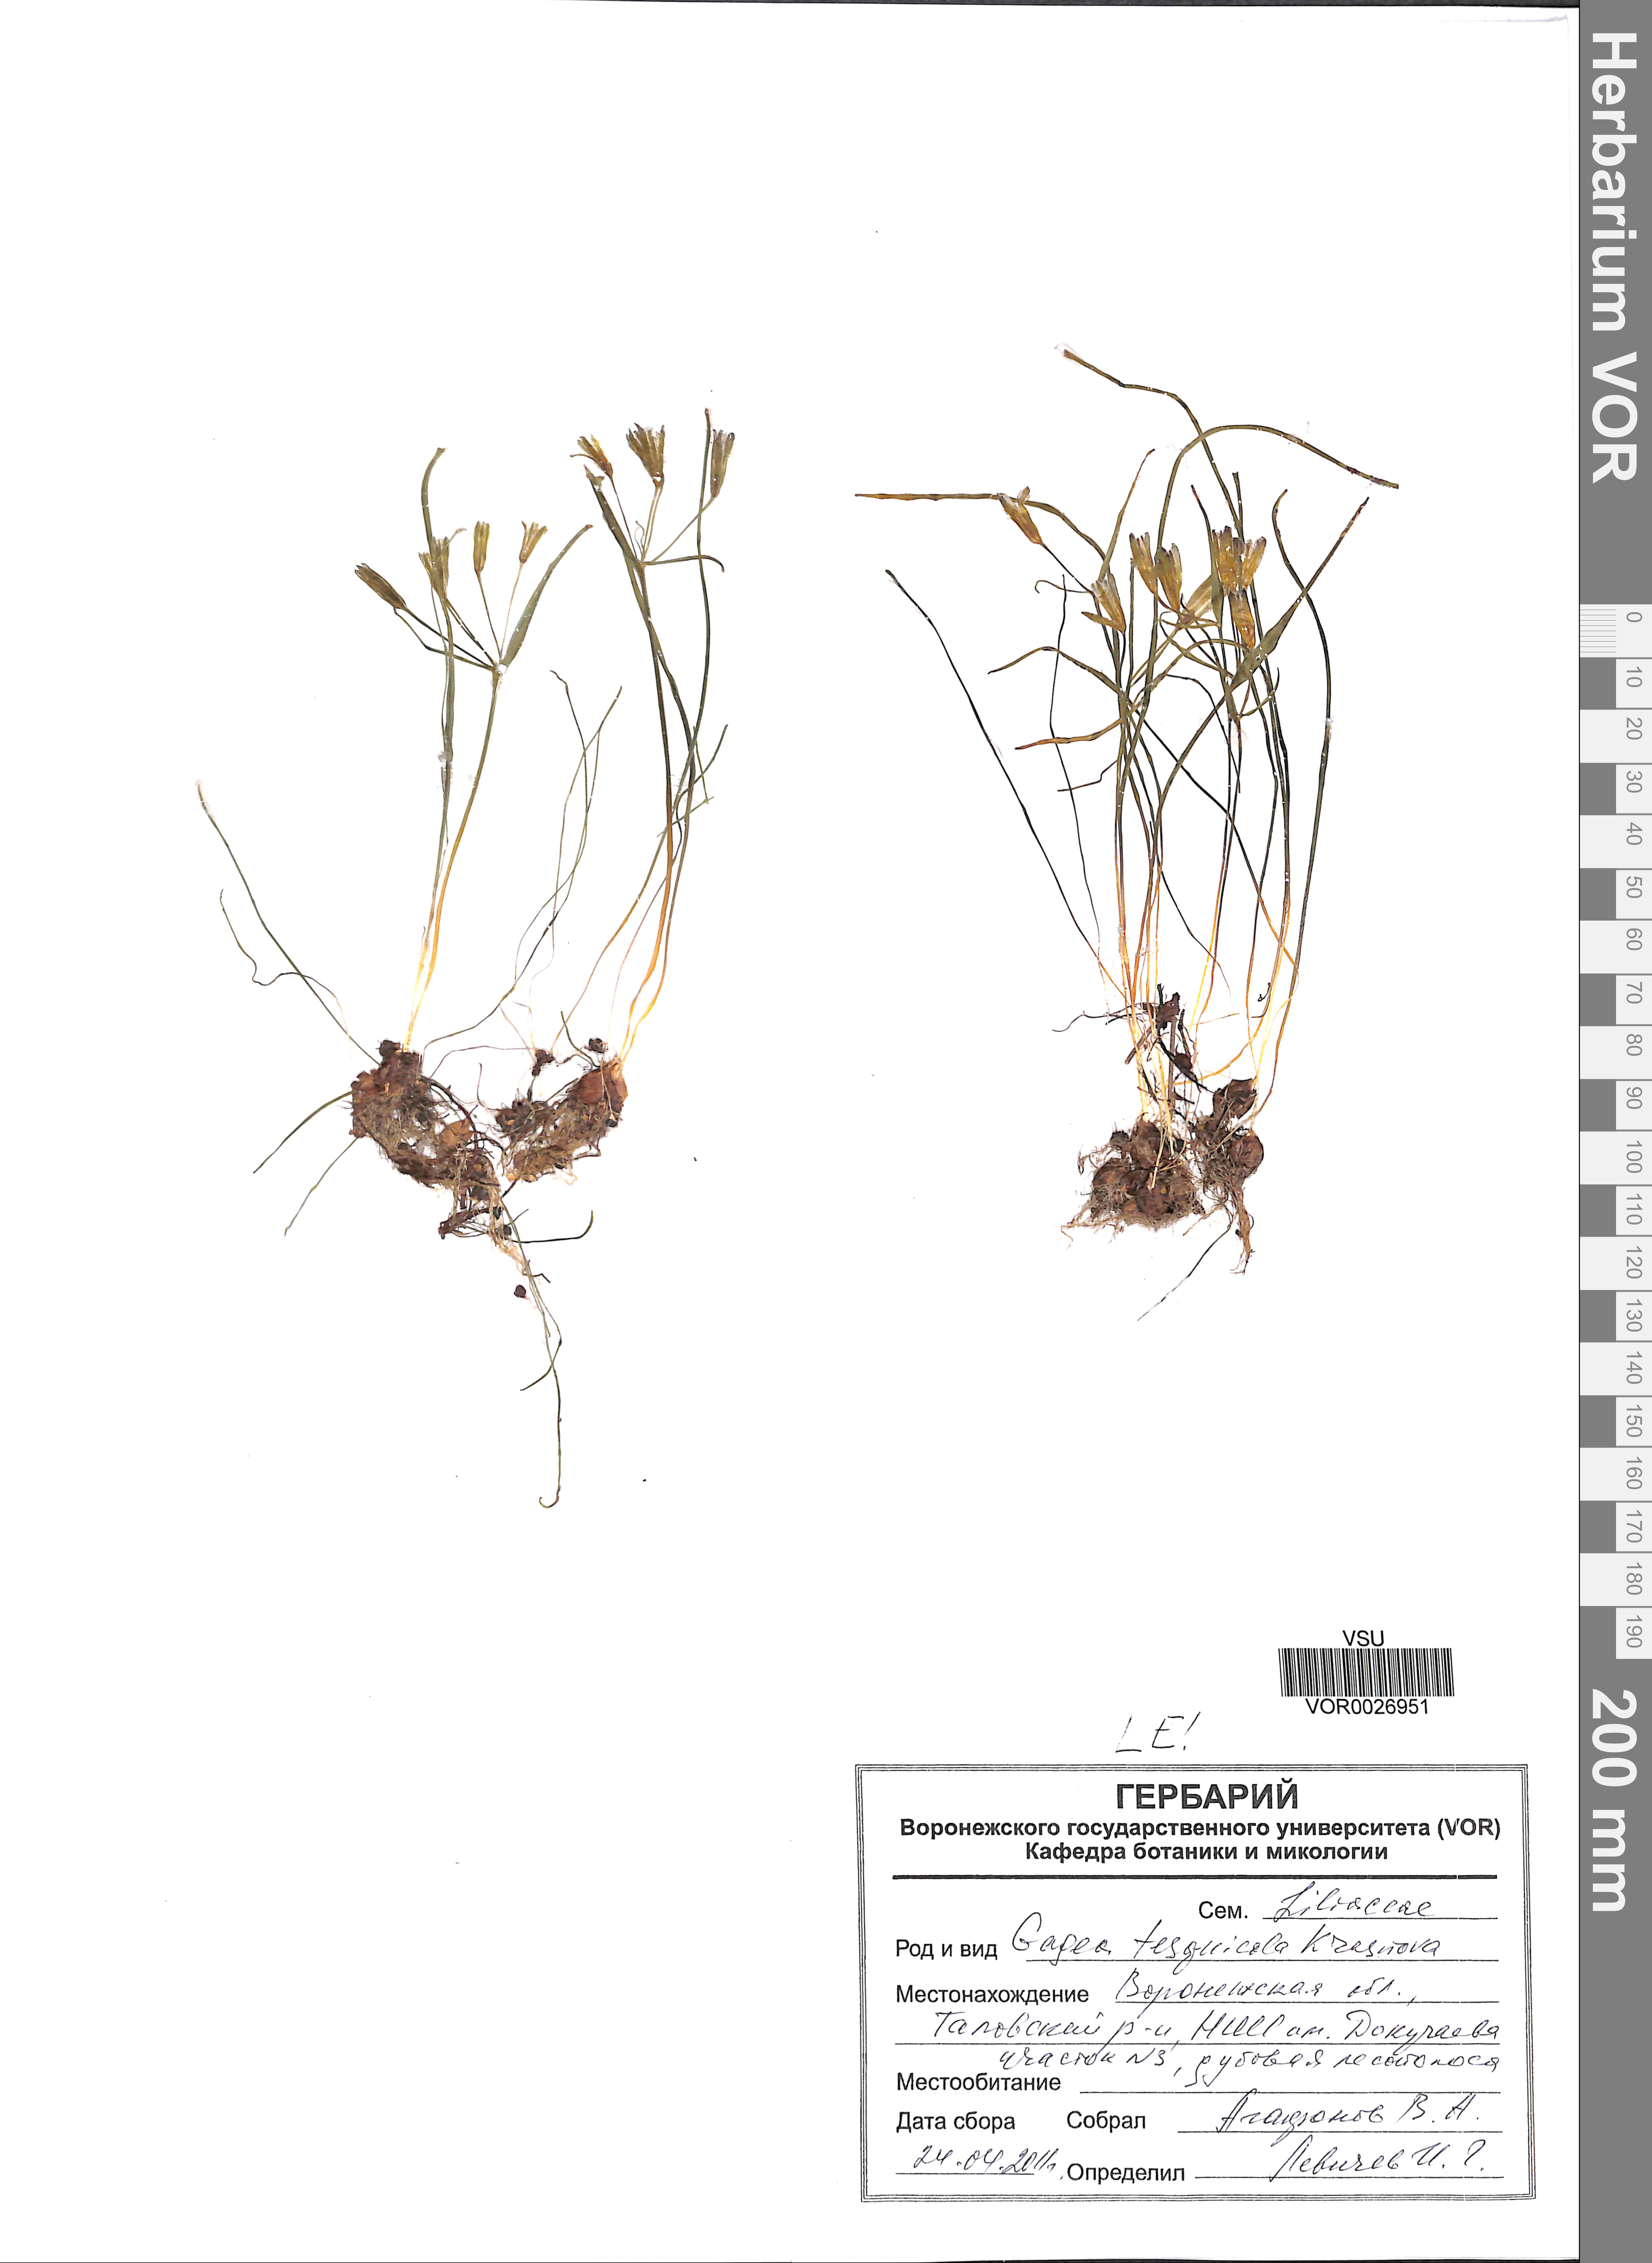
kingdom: Plantae
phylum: Tracheophyta
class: Liliopsida
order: Liliales
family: Liliaceae
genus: Gagea
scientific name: Gagea tesquicola
